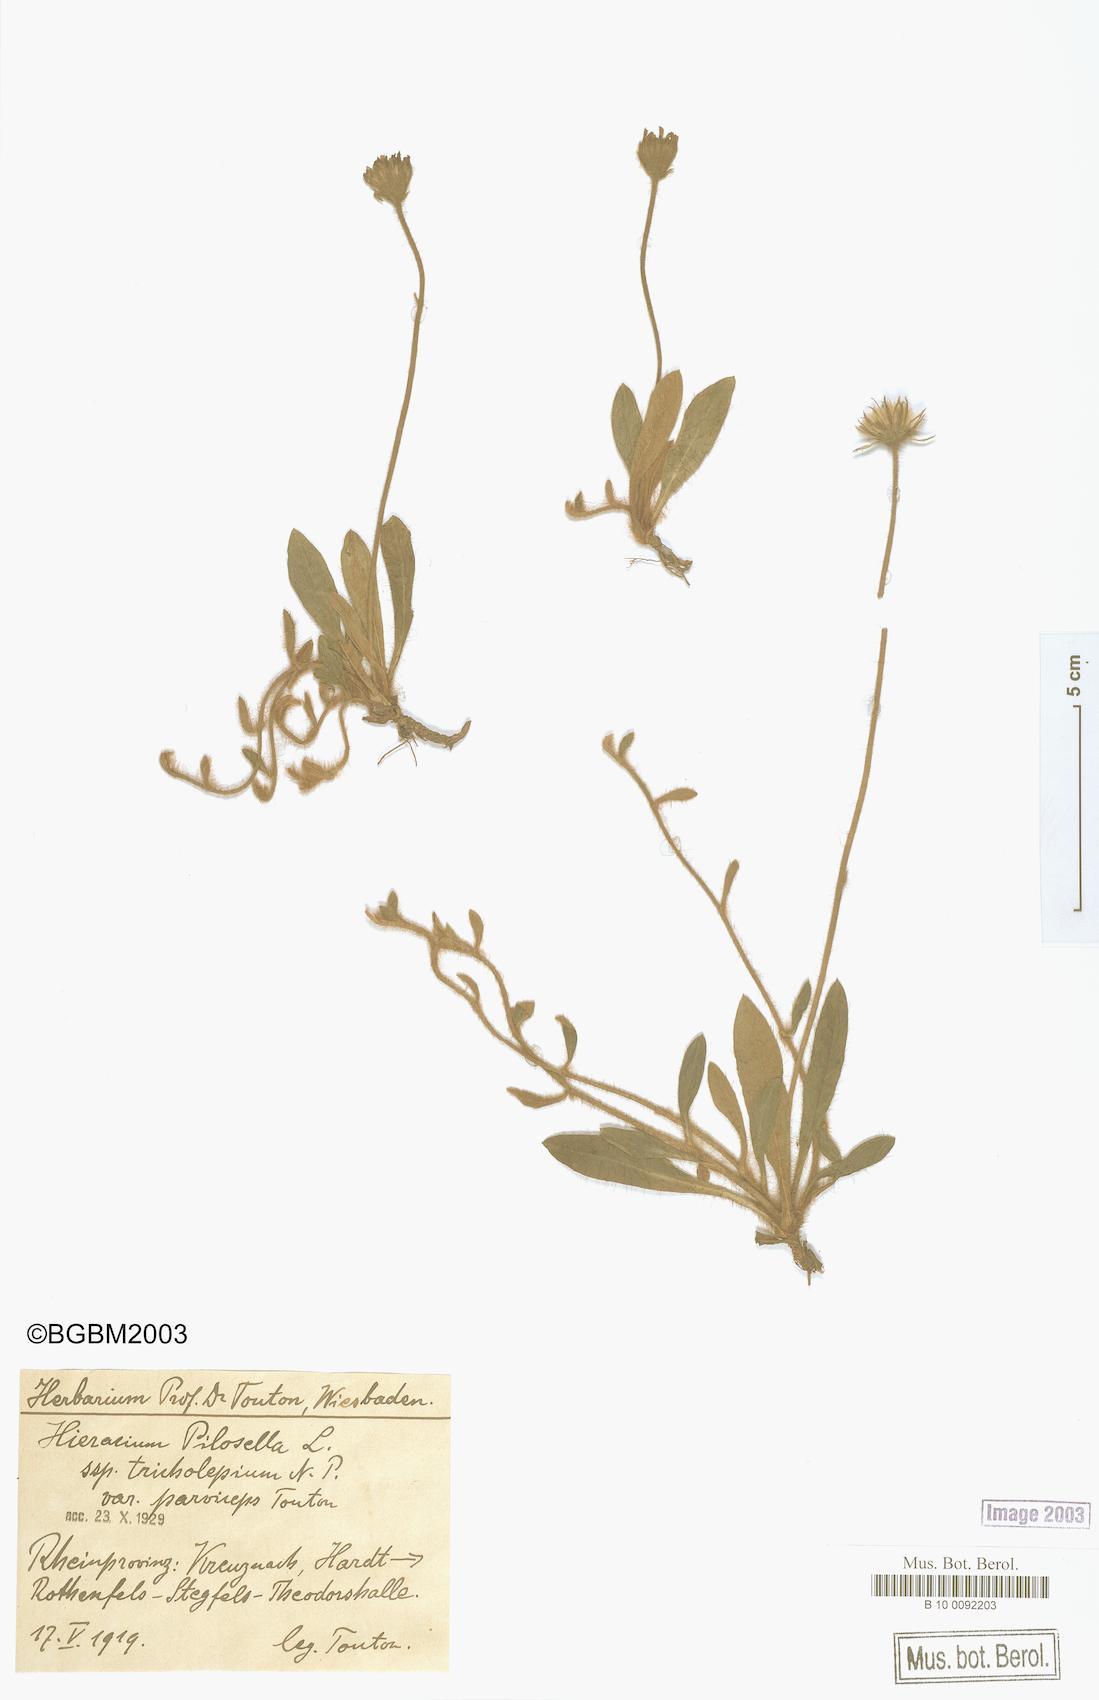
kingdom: Plantae
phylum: Tracheophyta
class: Magnoliopsida
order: Asterales
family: Asteraceae
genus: Pilosella
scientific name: Pilosella officinarum
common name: Mouse-ear hawkweed
